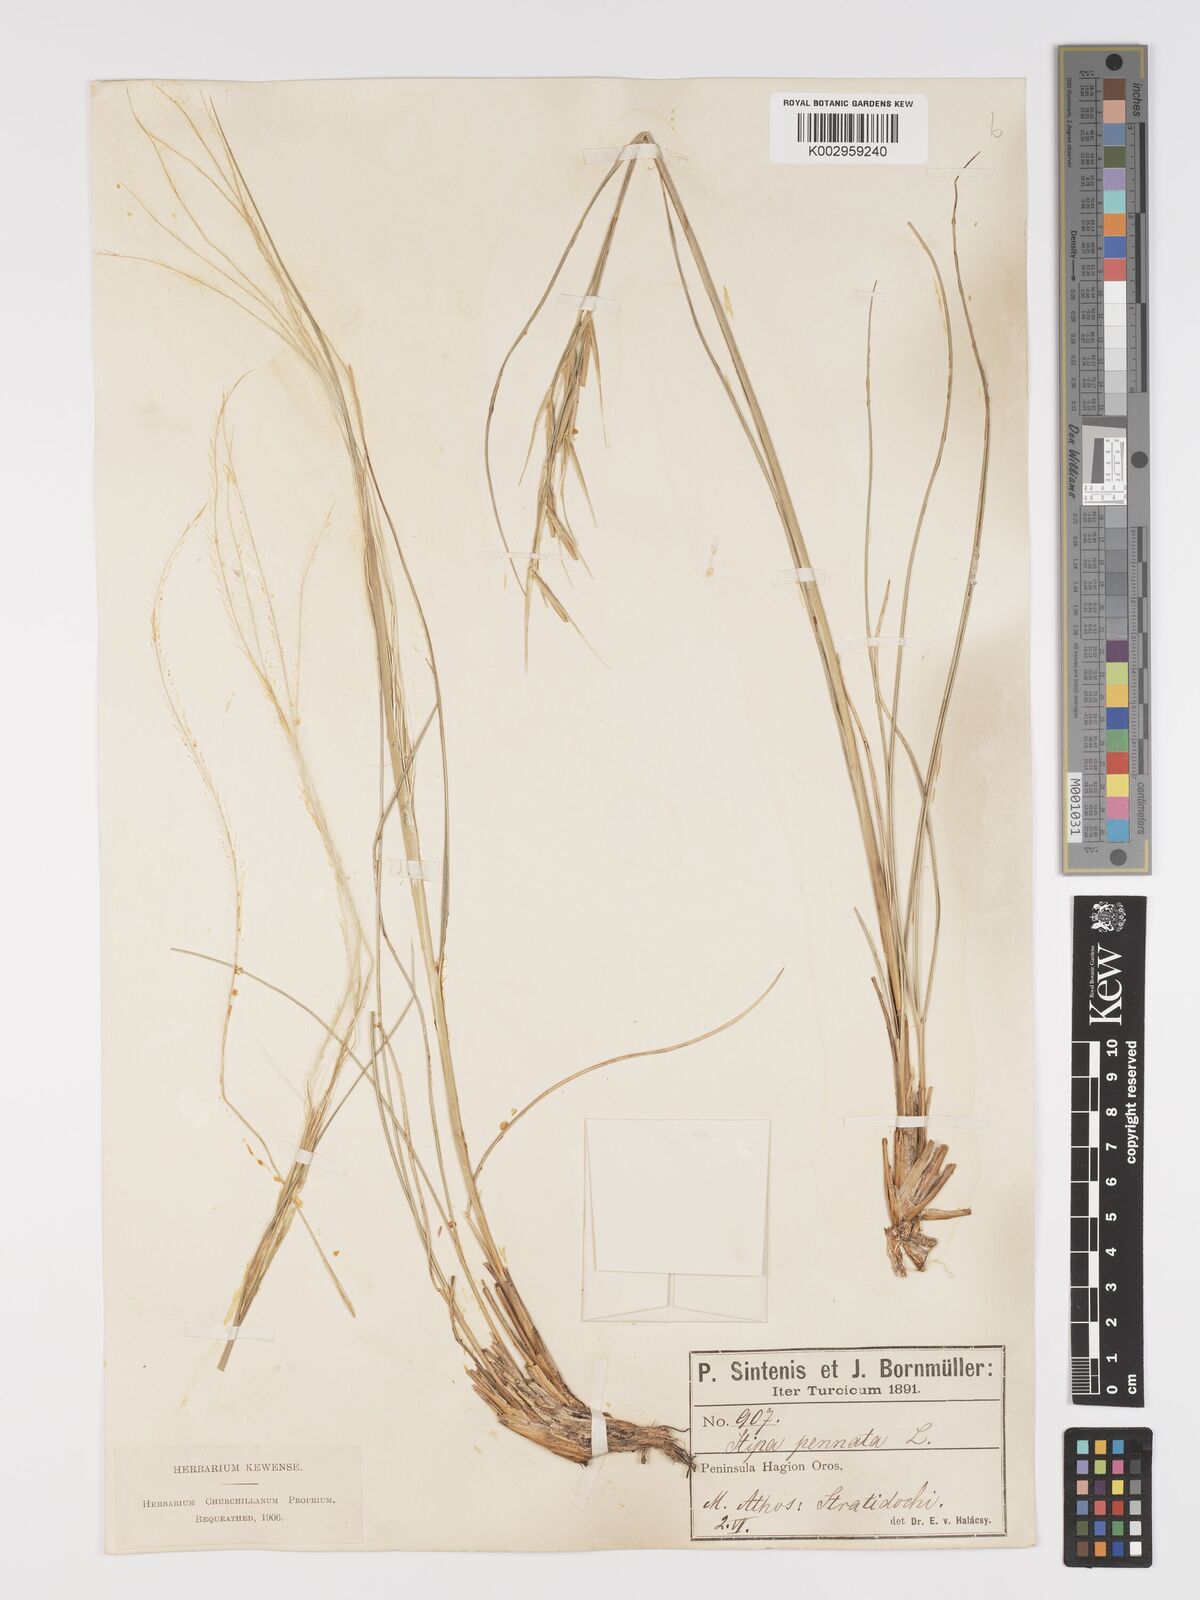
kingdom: Plantae
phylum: Tracheophyta
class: Liliopsida
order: Poales
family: Poaceae
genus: Stipa
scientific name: Stipa pennata
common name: European feather grass
